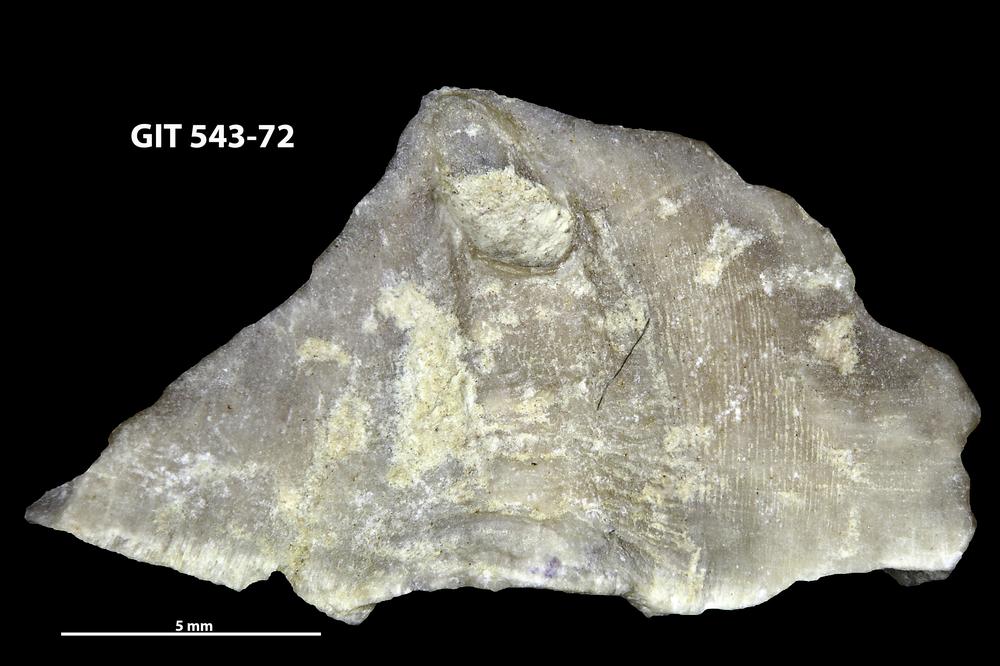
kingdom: Animalia
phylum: Brachiopoda
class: Rhynchonellata
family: Clitambonitidae
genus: Vellamo
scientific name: Vellamo
